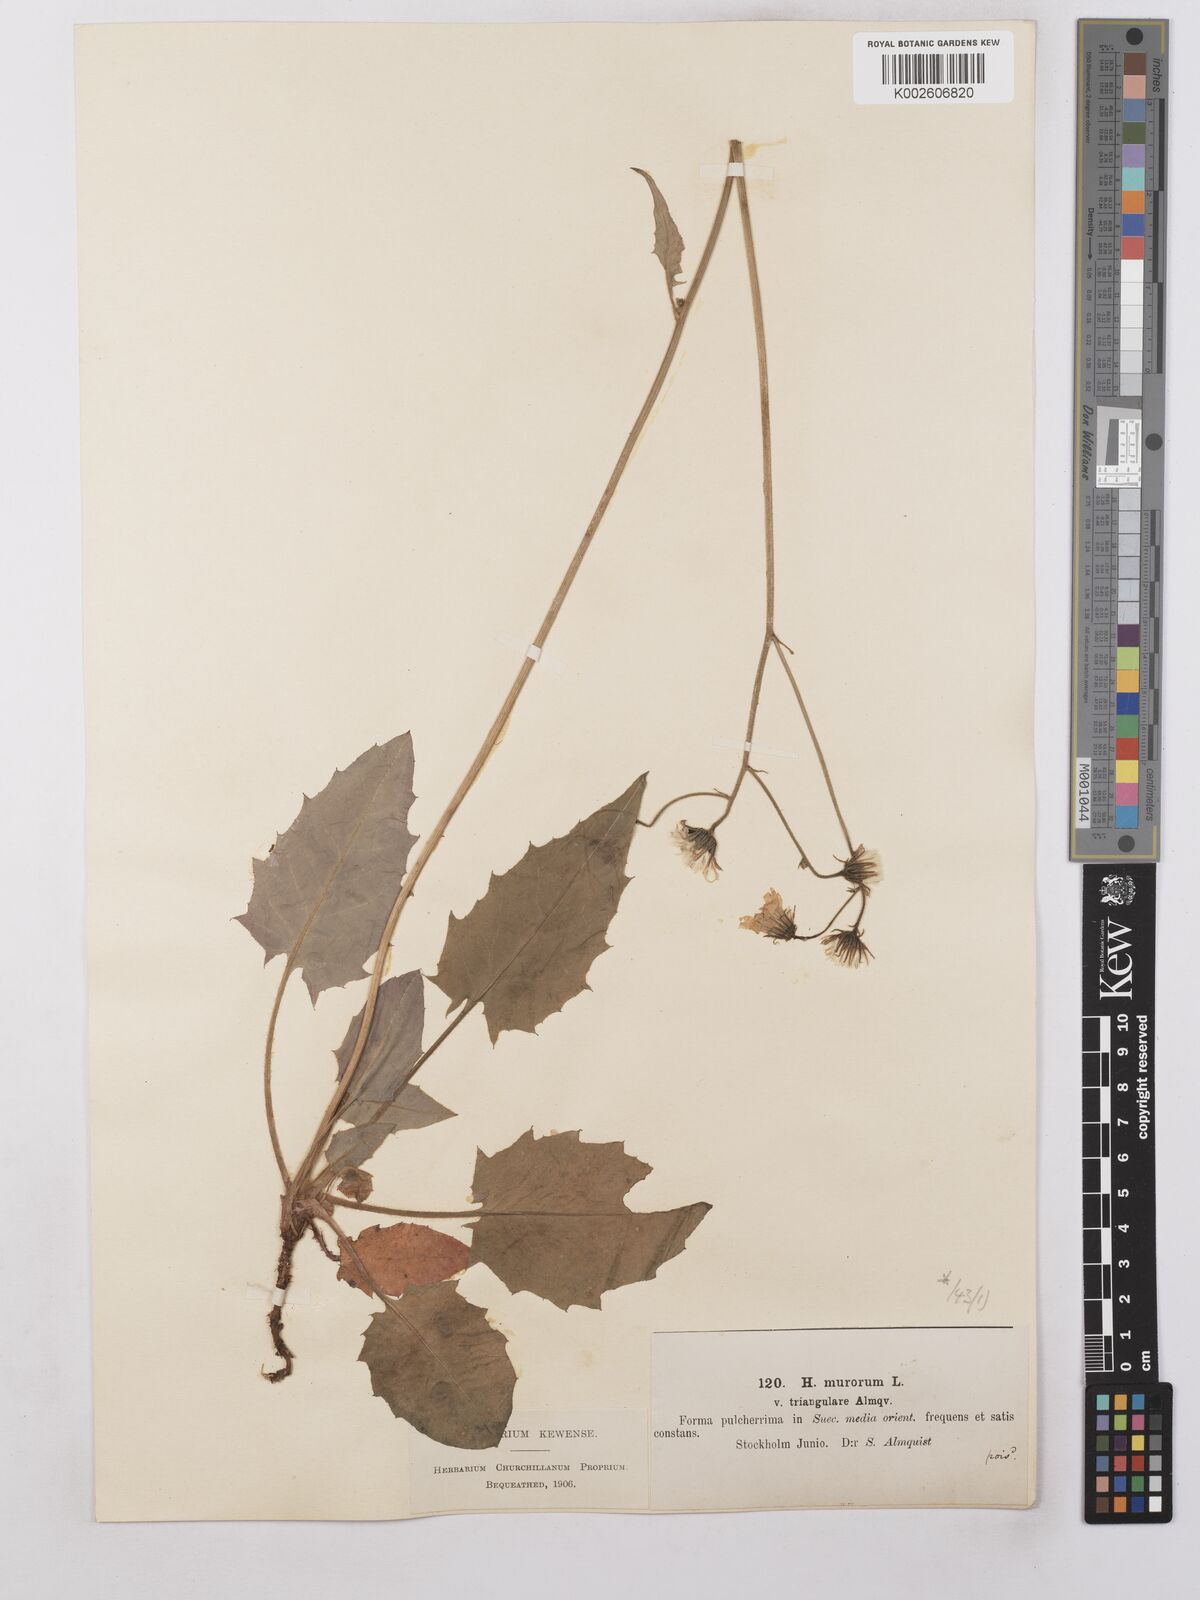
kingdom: Plantae
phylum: Tracheophyta
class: Magnoliopsida
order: Asterales
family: Asteraceae
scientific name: Asteraceae
